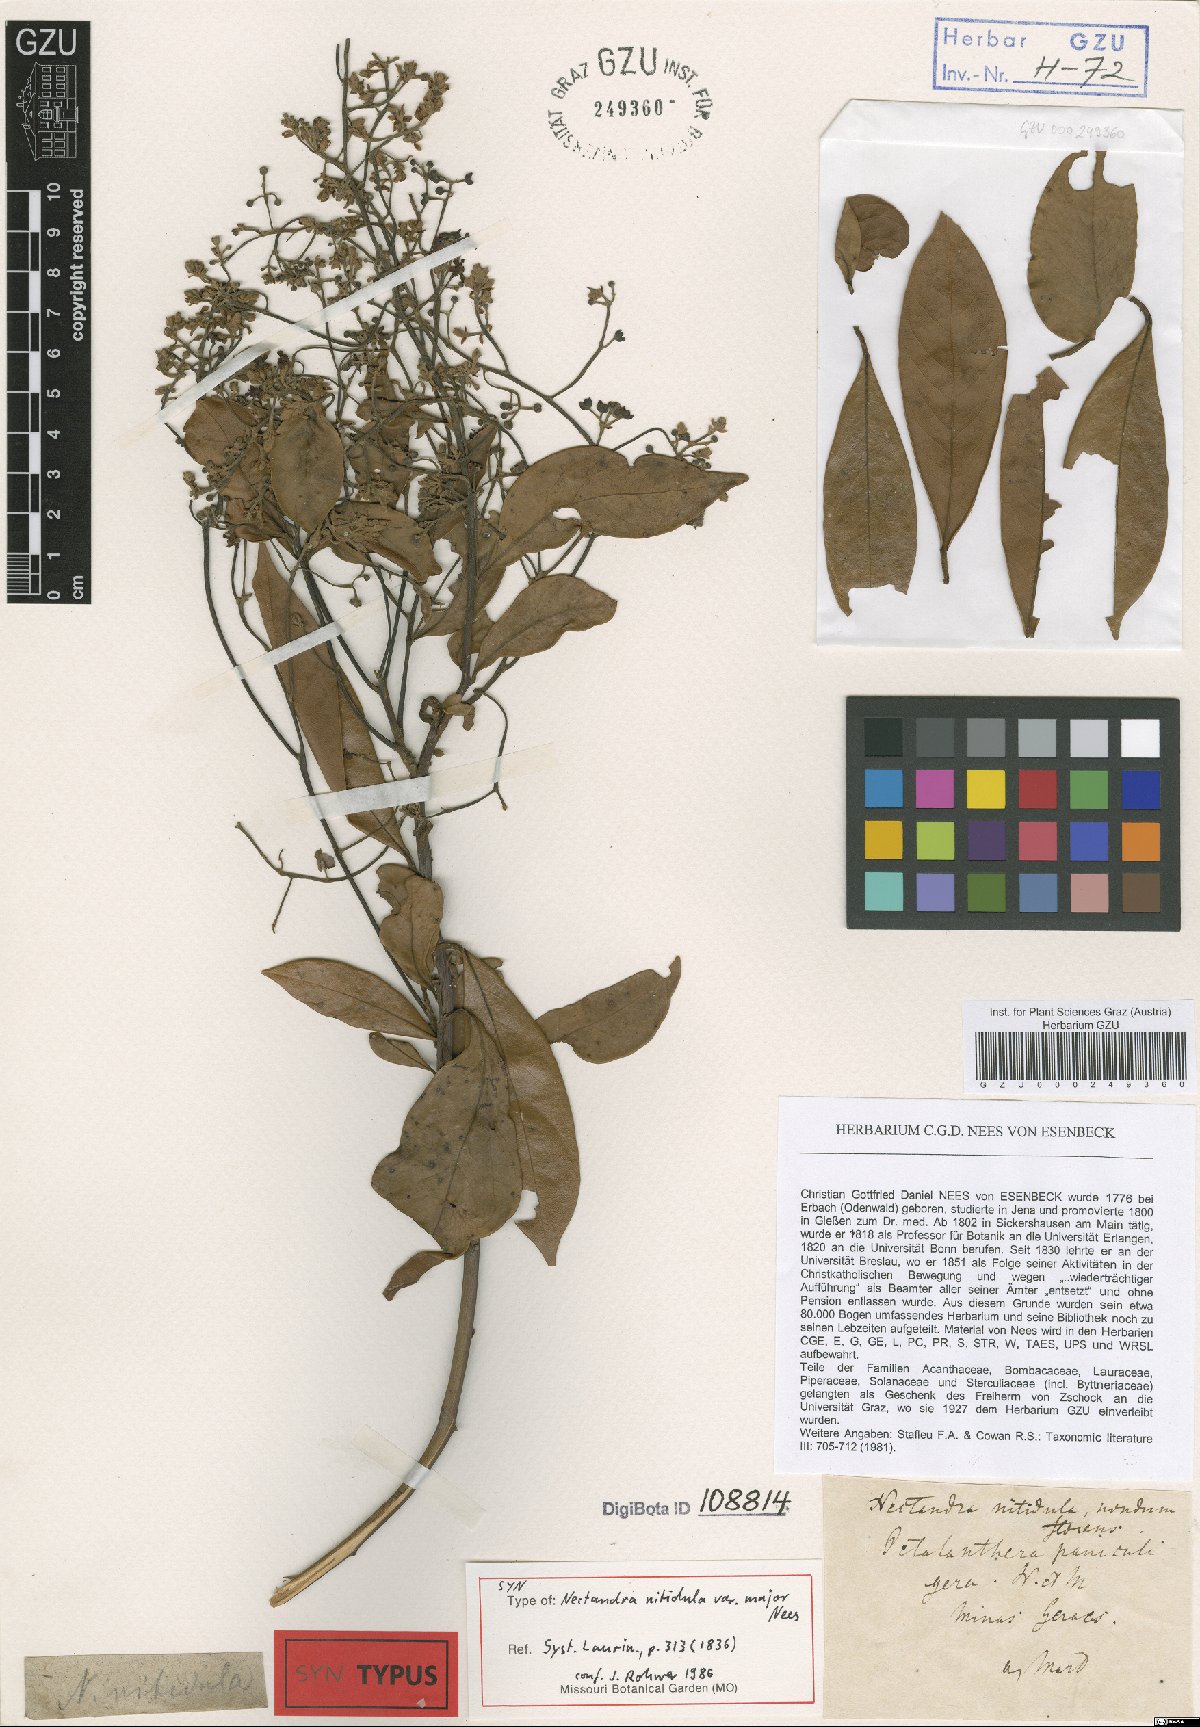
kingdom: Plantae
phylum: Tracheophyta
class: Magnoliopsida
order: Laurales
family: Lauraceae
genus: Nectandra
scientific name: Nectandra nitidula
